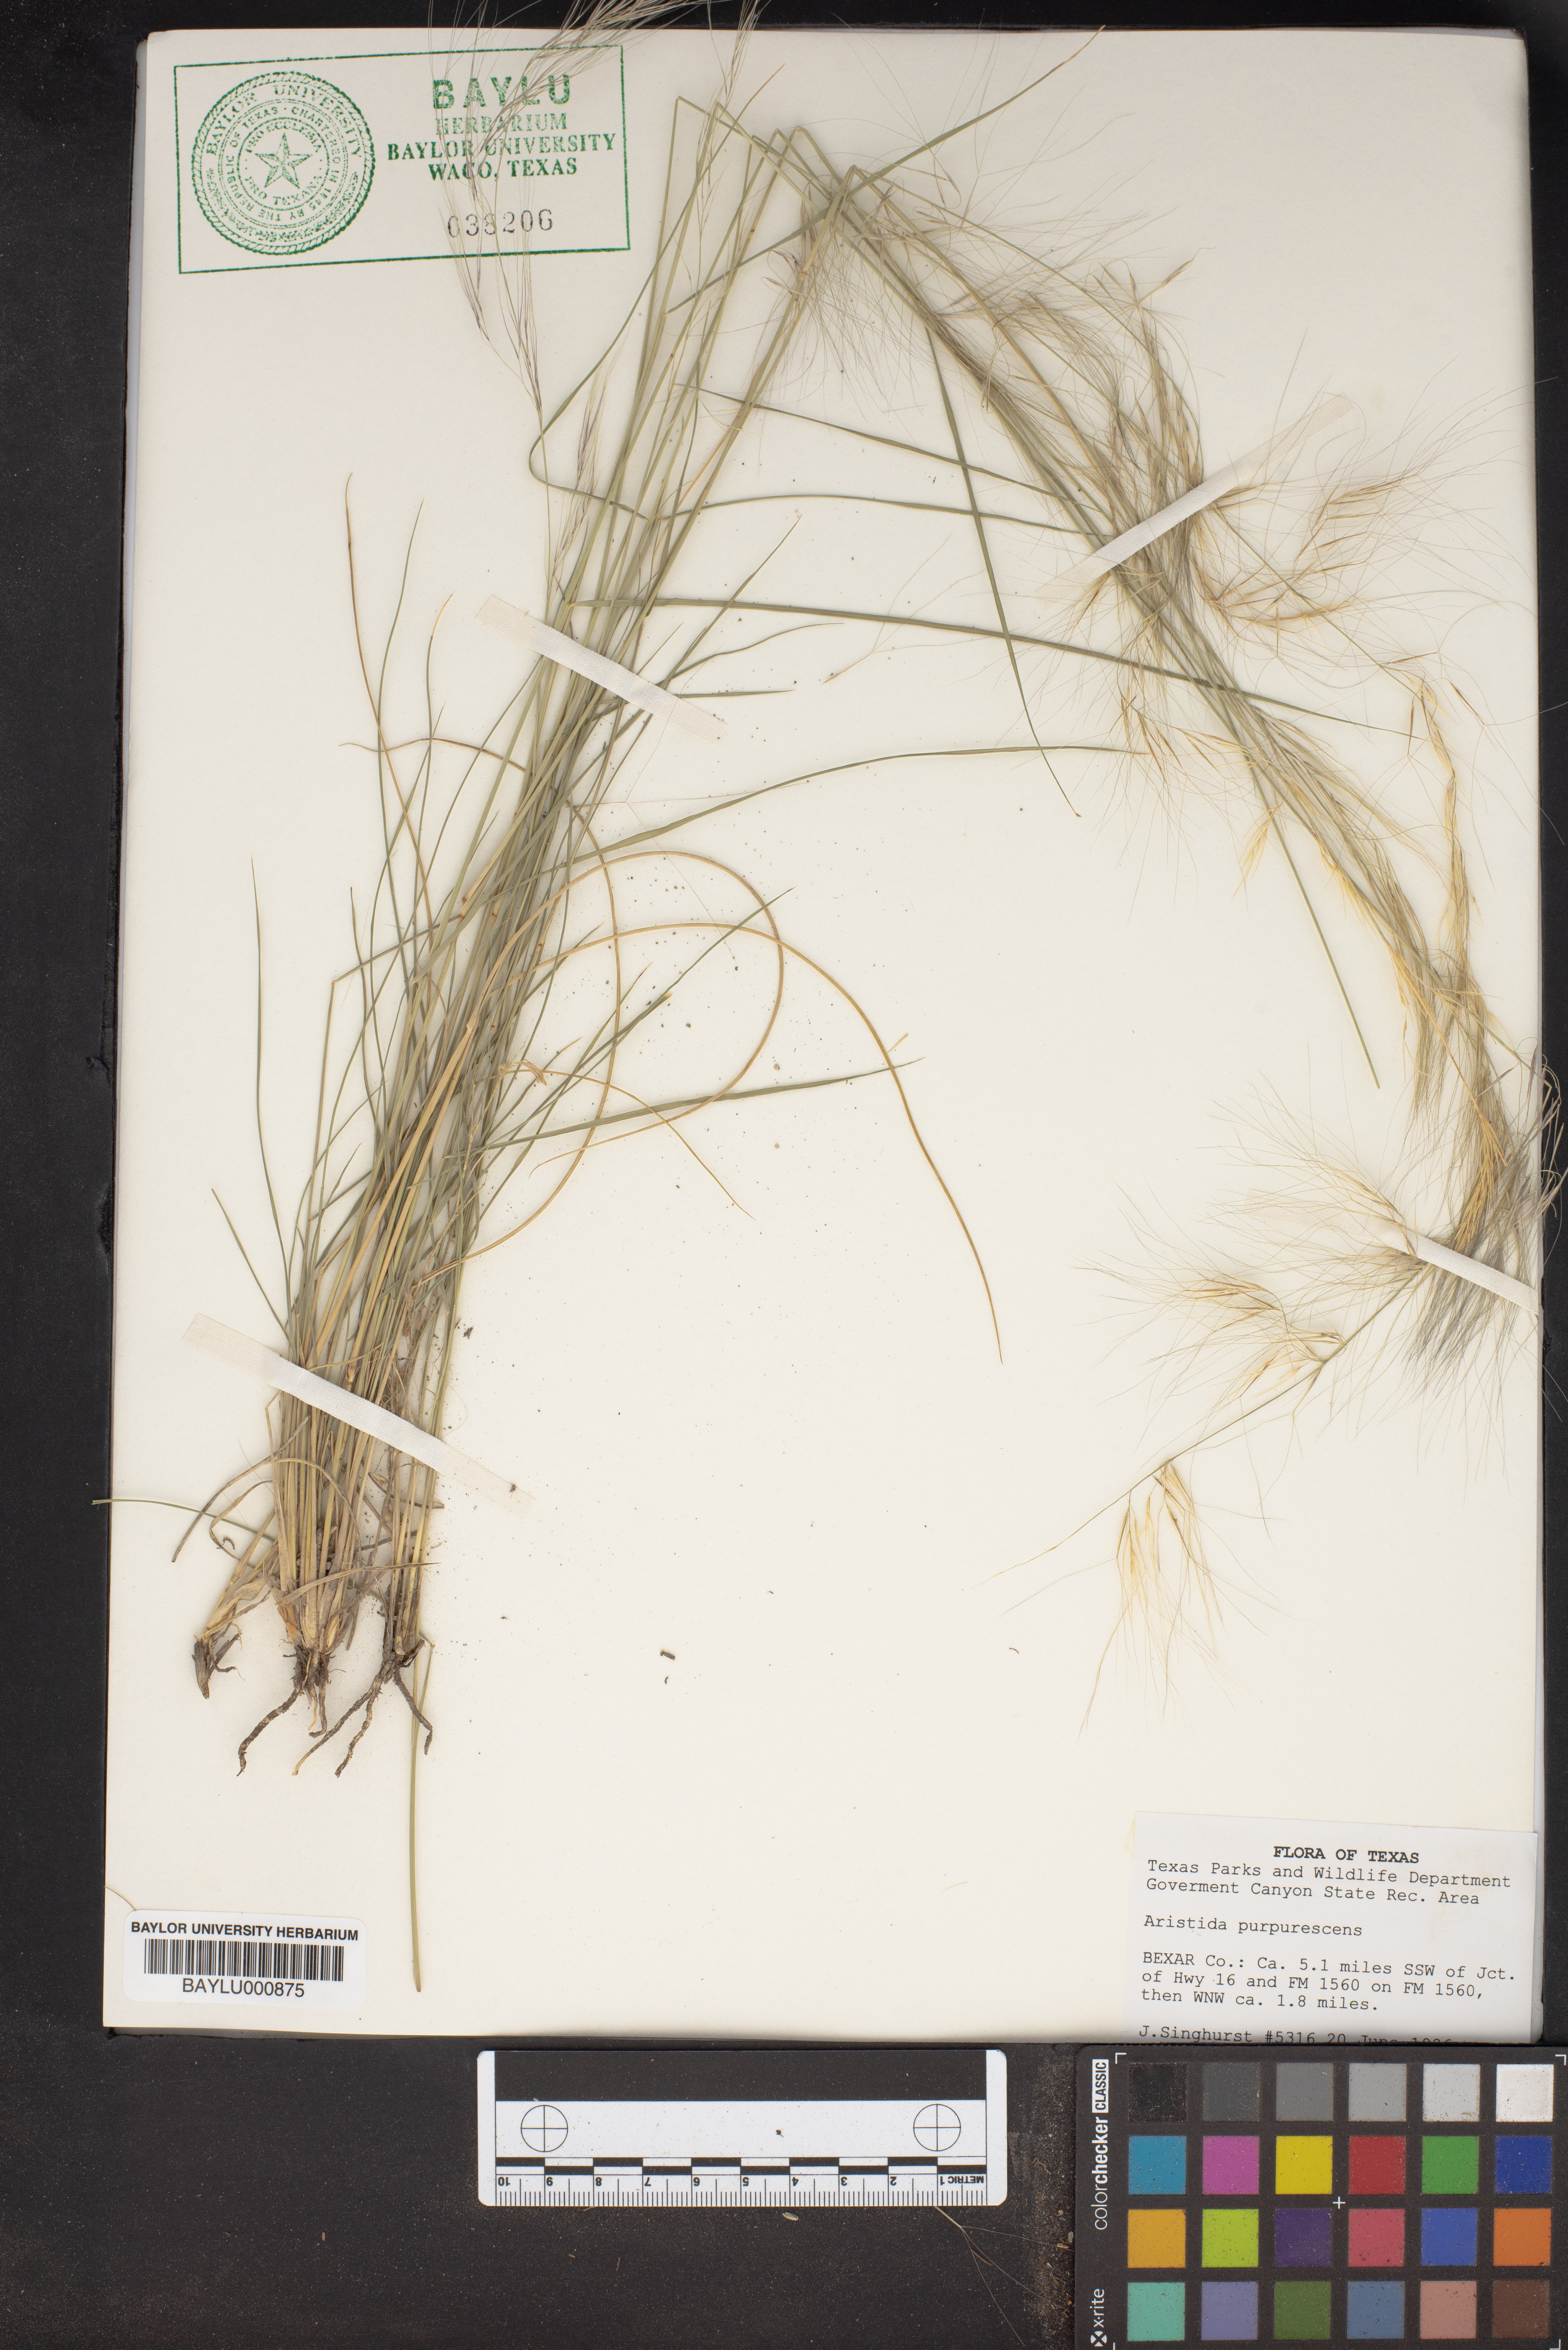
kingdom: Plantae
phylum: Tracheophyta
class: Liliopsida
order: Poales
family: Poaceae
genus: Aristida
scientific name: Aristida purpurascens
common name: Arrow-feather
